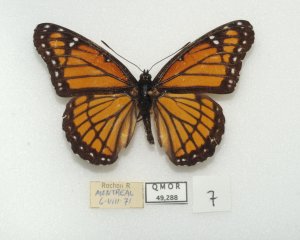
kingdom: Animalia
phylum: Arthropoda
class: Insecta
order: Lepidoptera
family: Nymphalidae
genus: Limenitis
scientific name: Limenitis archippus
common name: Viceroy
